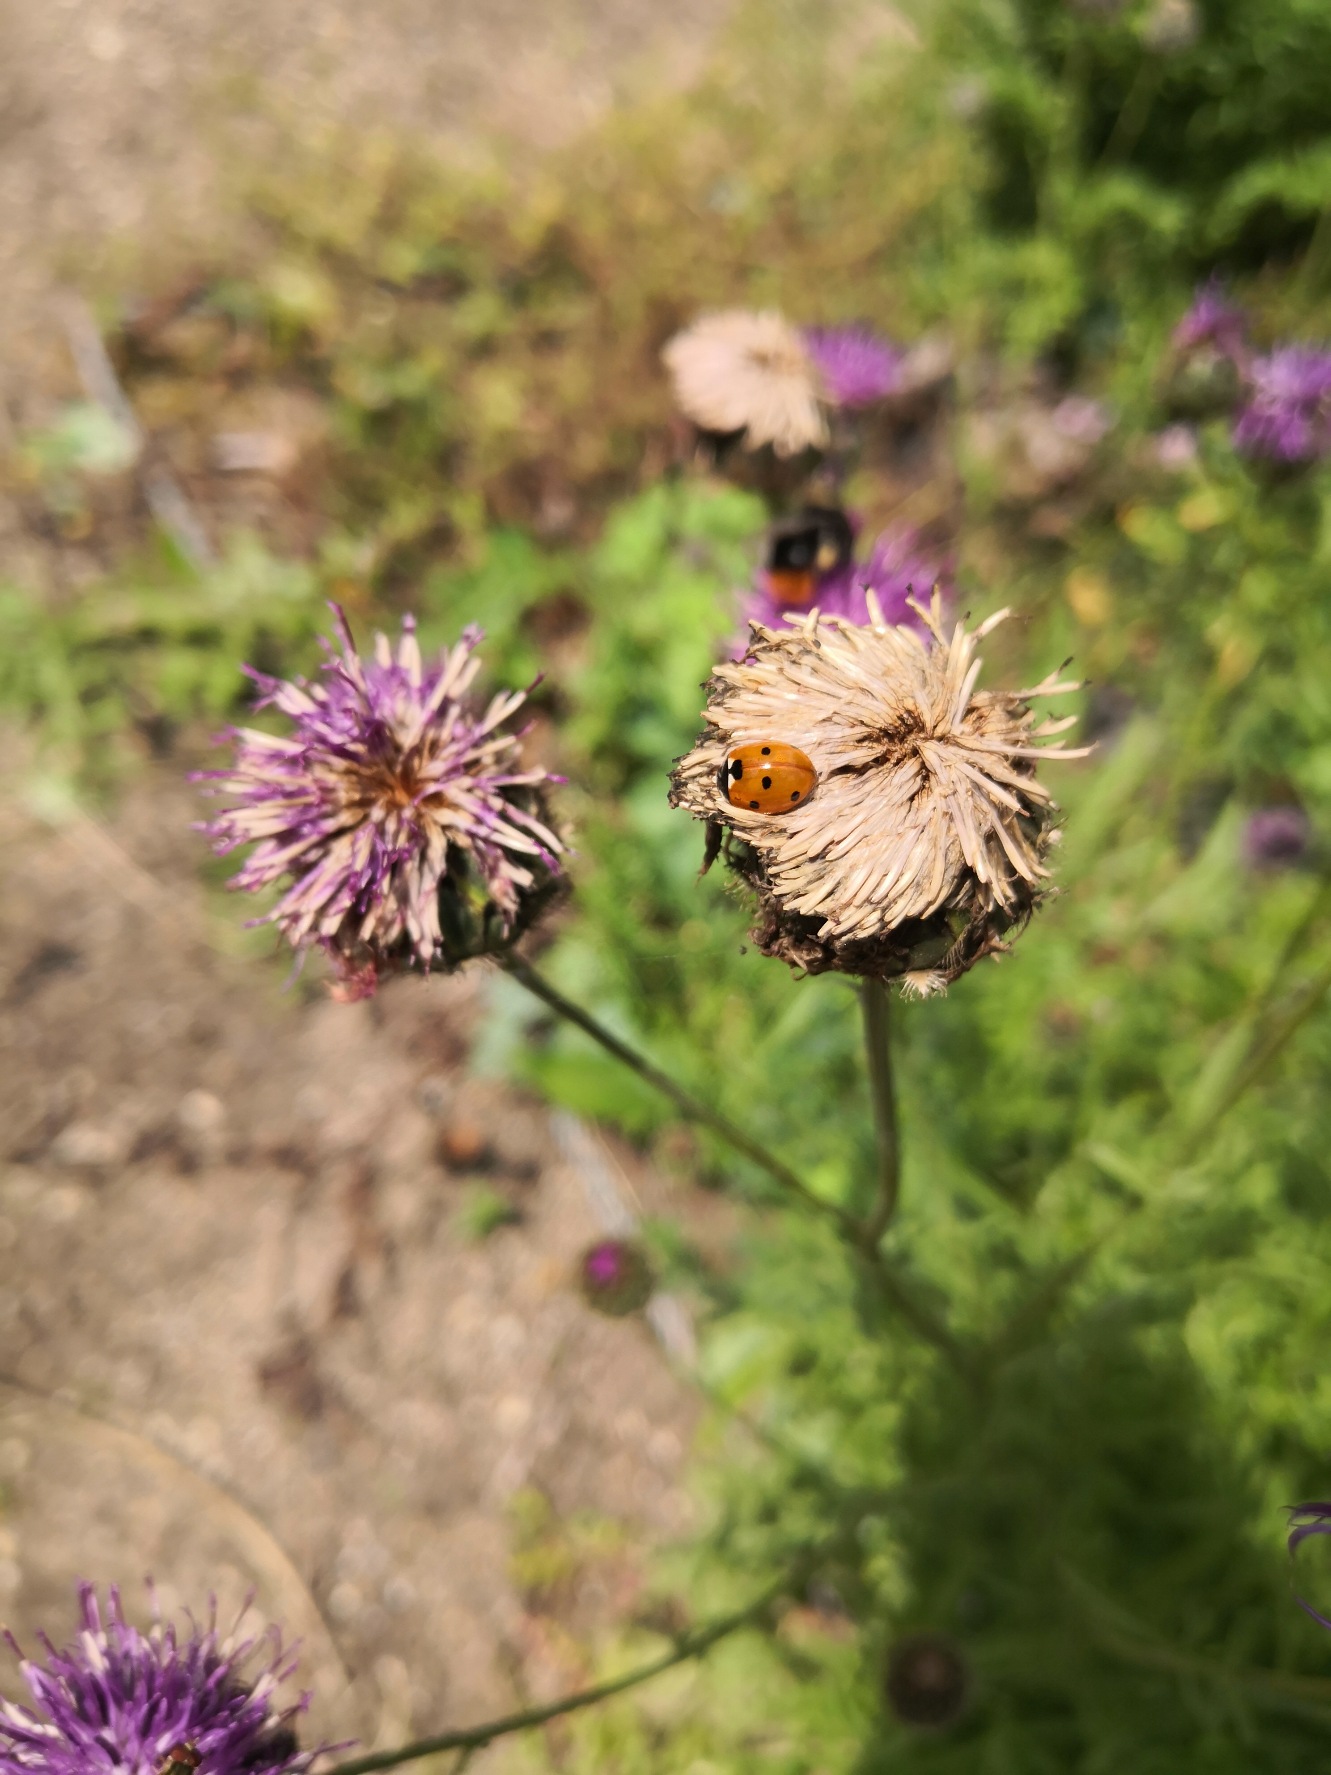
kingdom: Animalia
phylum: Arthropoda
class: Insecta
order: Coleoptera
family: Coccinellidae
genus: Coccinella
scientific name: Coccinella septempunctata
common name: Syvplettet mariehøne
